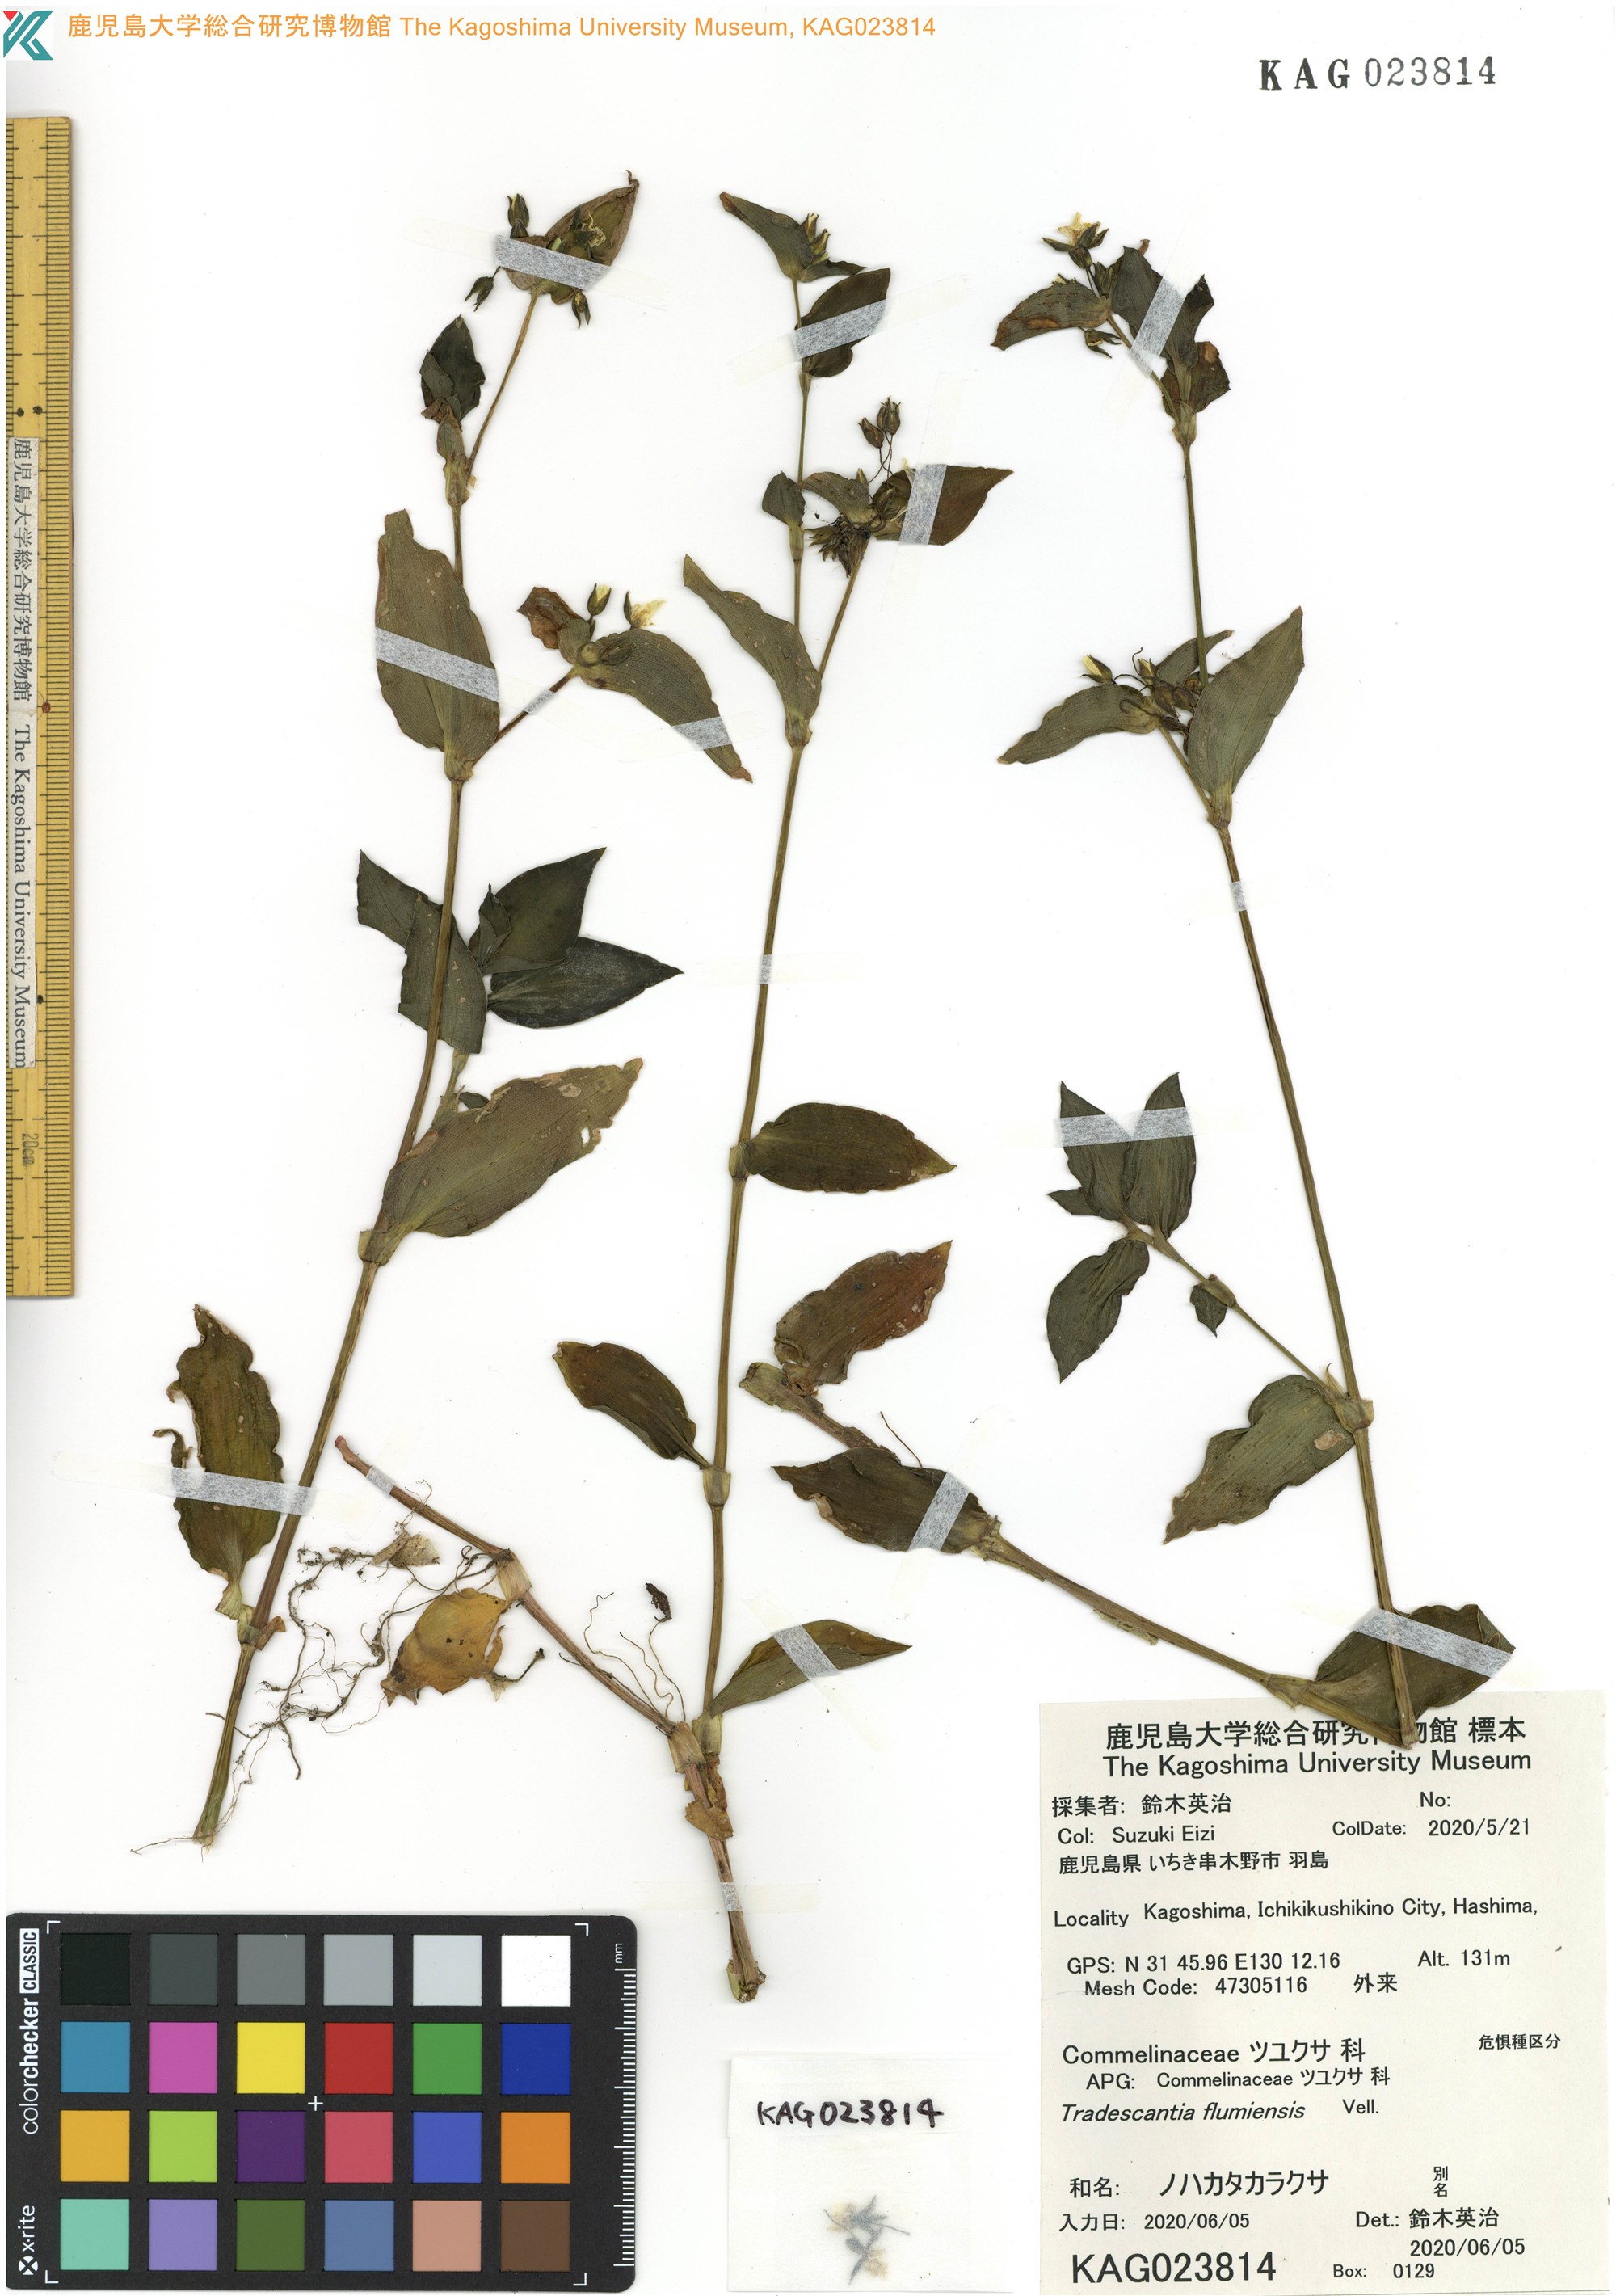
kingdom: Plantae
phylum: Tracheophyta
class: Liliopsida
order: Commelinales
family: Commelinaceae
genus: Tradescantia
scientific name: Tradescantia fluminensis
